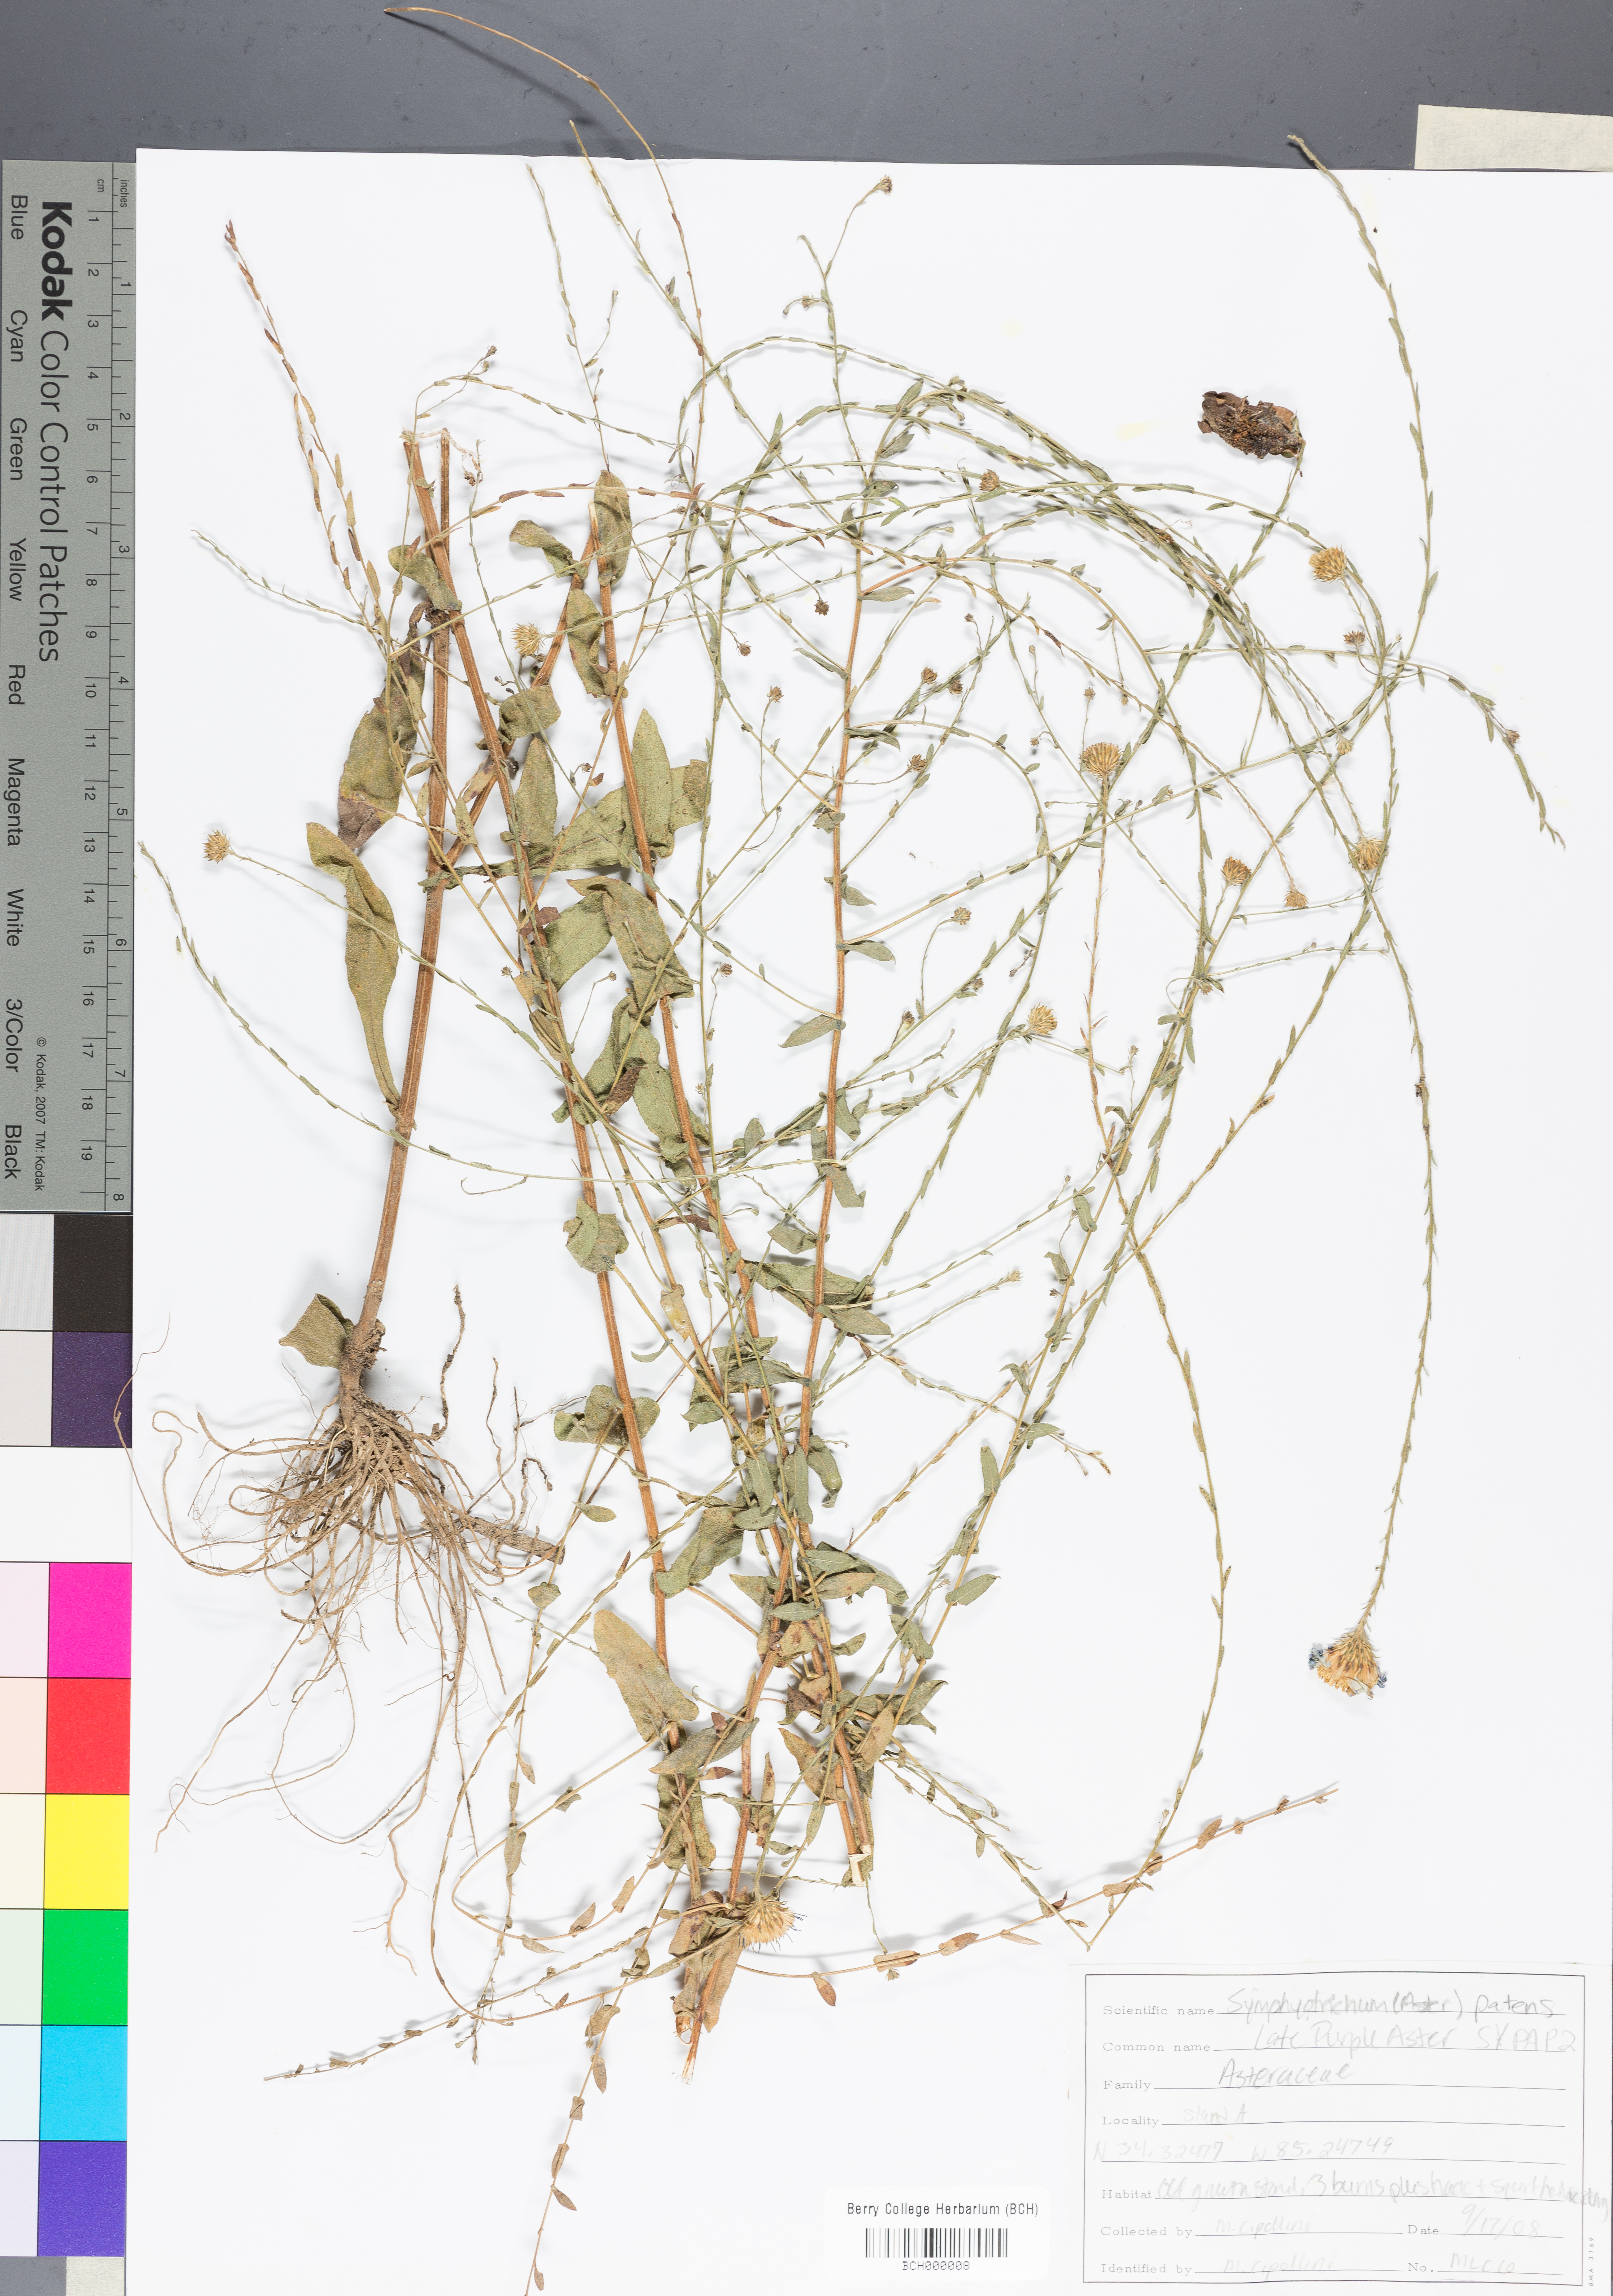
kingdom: Plantae
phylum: Tracheophyta
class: Magnoliopsida
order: Asterales
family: Asteraceae
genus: Symphyotrichum
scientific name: Symphyotrichum patens
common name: Late purple aster
